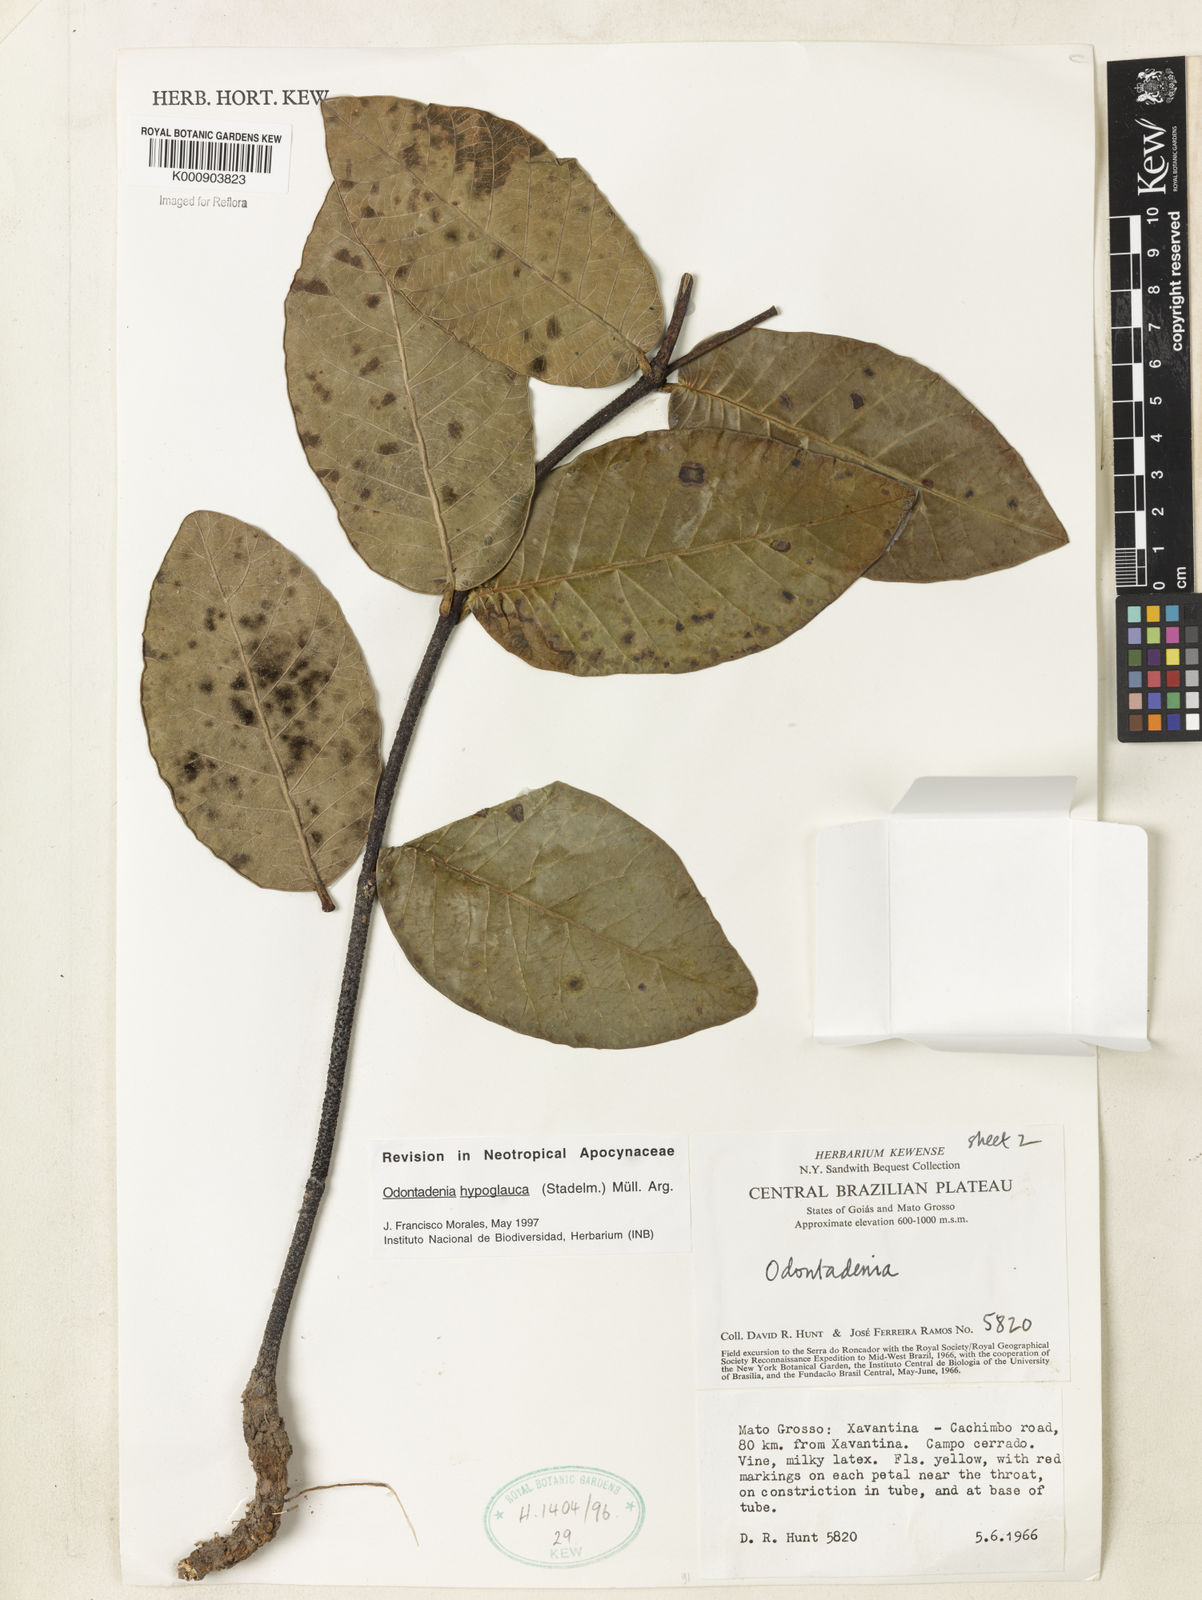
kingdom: Plantae
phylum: Tracheophyta
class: Magnoliopsida
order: Gentianales
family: Apocynaceae
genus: Odontadenia
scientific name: Odontadenia
